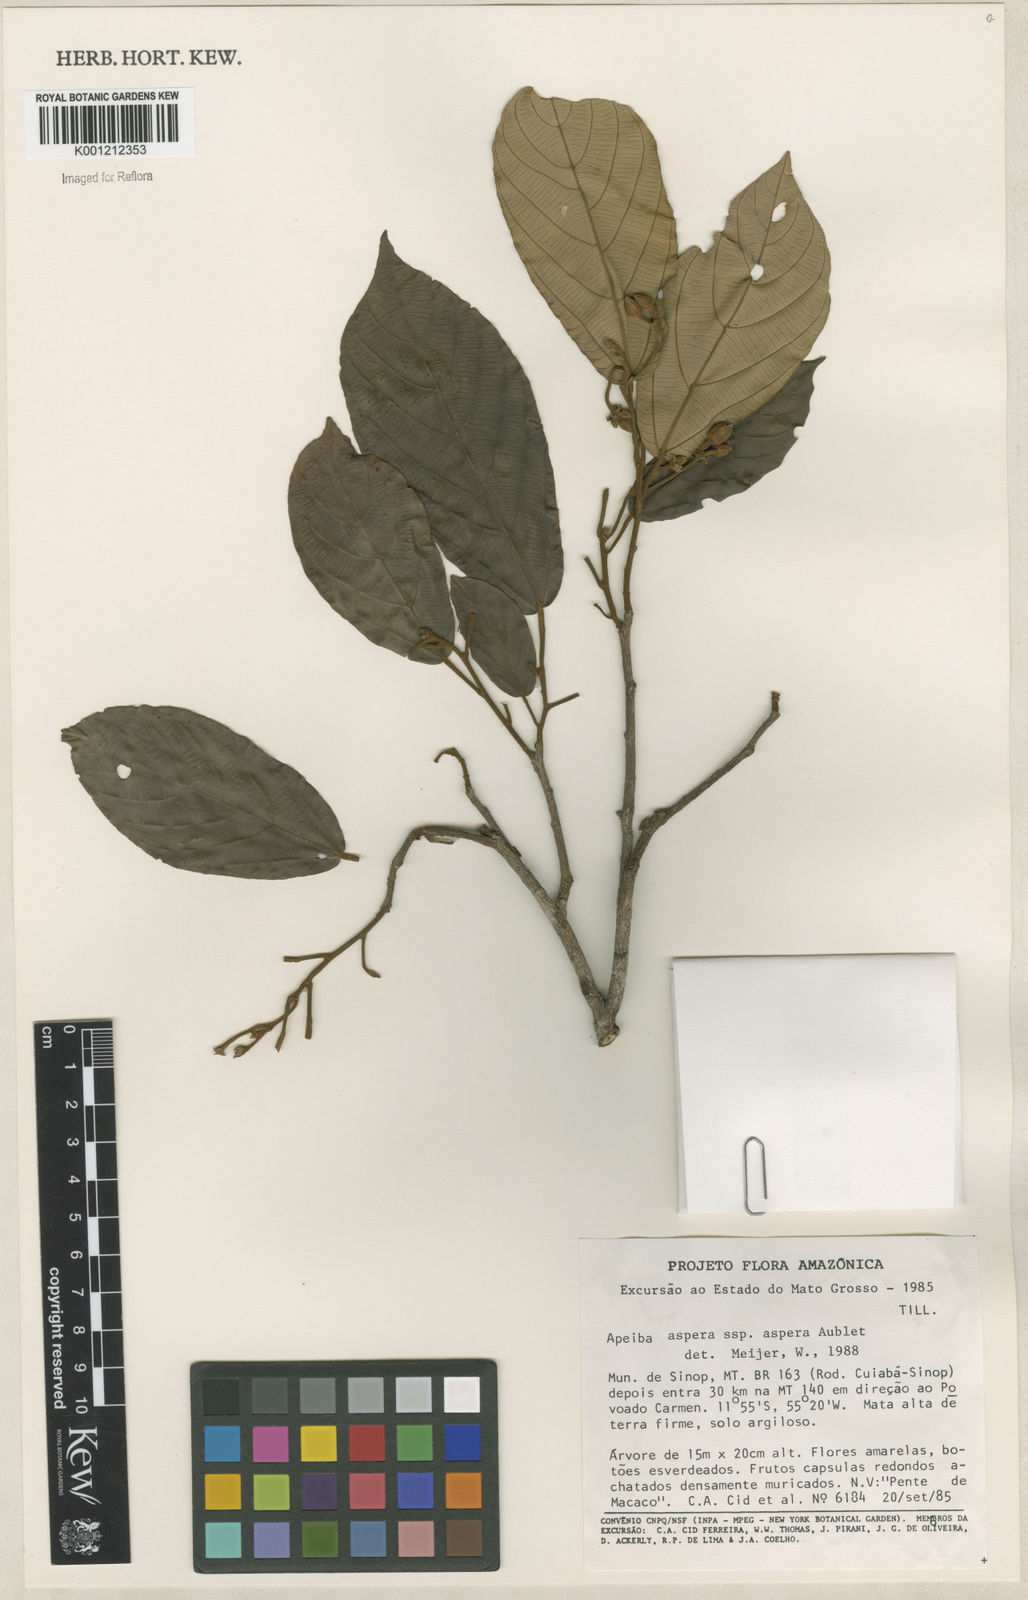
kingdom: Plantae
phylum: Tracheophyta
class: Magnoliopsida
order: Malvales
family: Malvaceae
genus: Apeiba
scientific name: Apeiba
